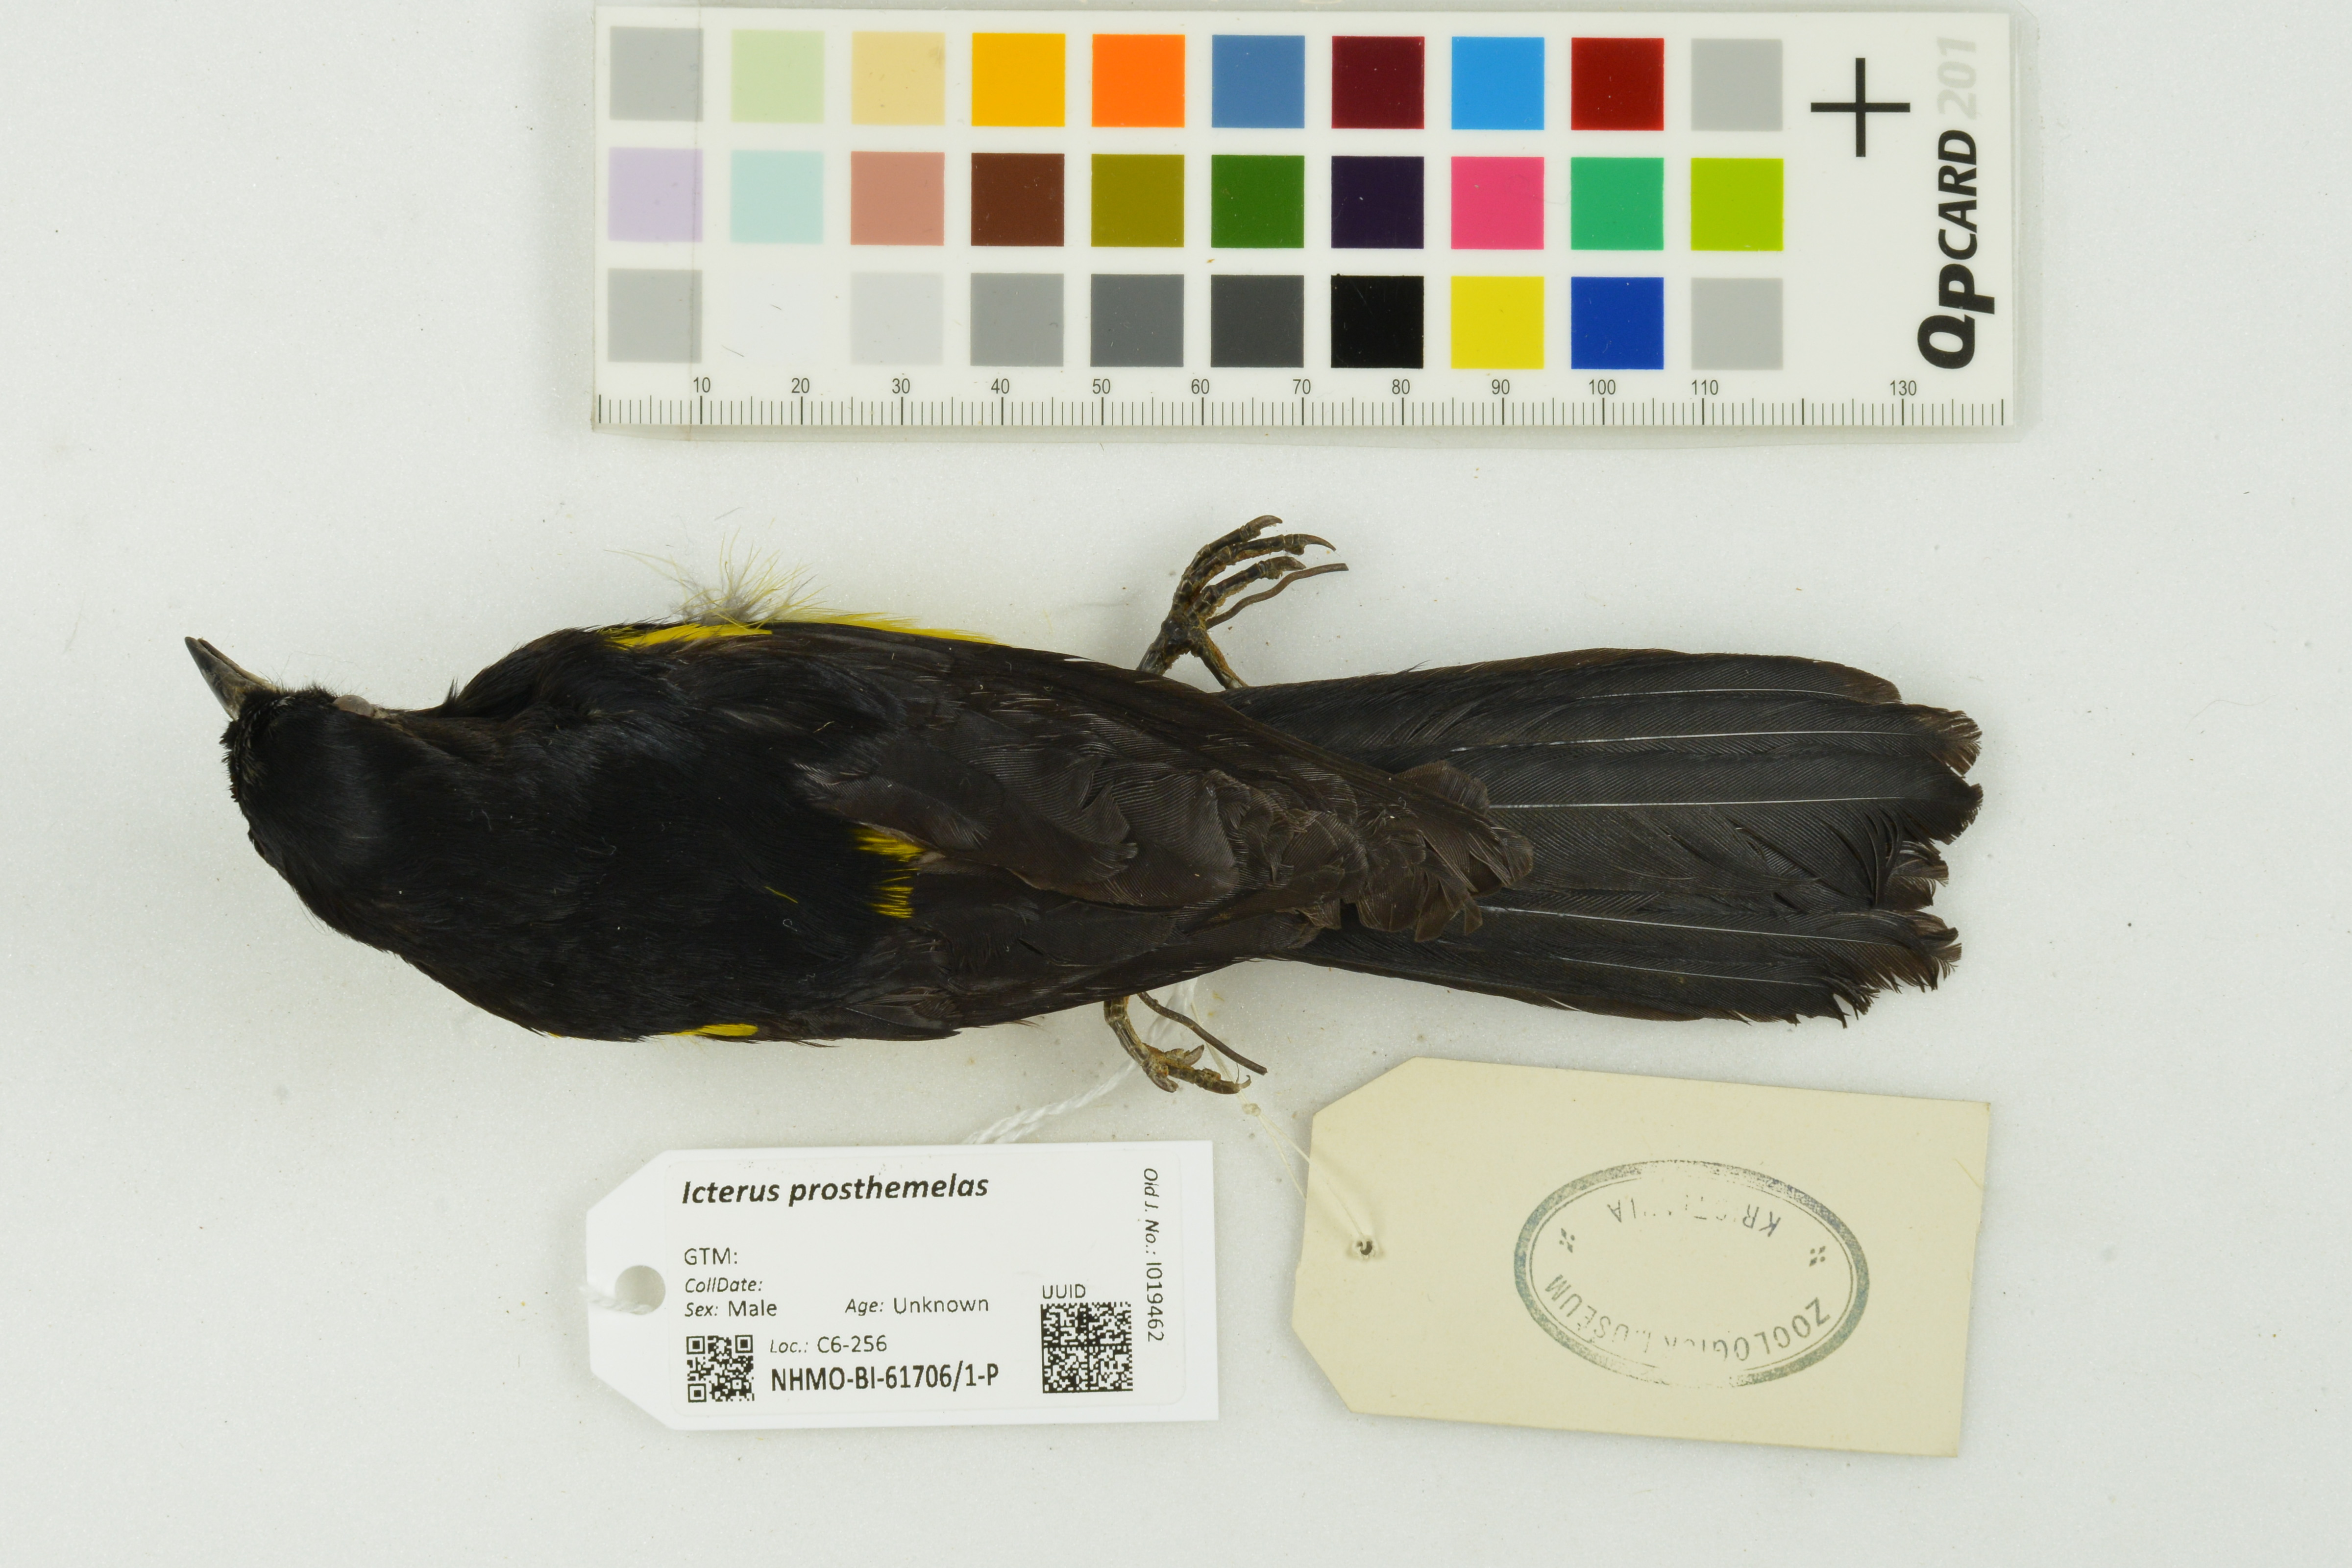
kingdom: Animalia
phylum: Chordata
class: Aves
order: Passeriformes
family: Icteridae
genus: Icterus
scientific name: Icterus prosthemelas
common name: Black-cowled oriole
